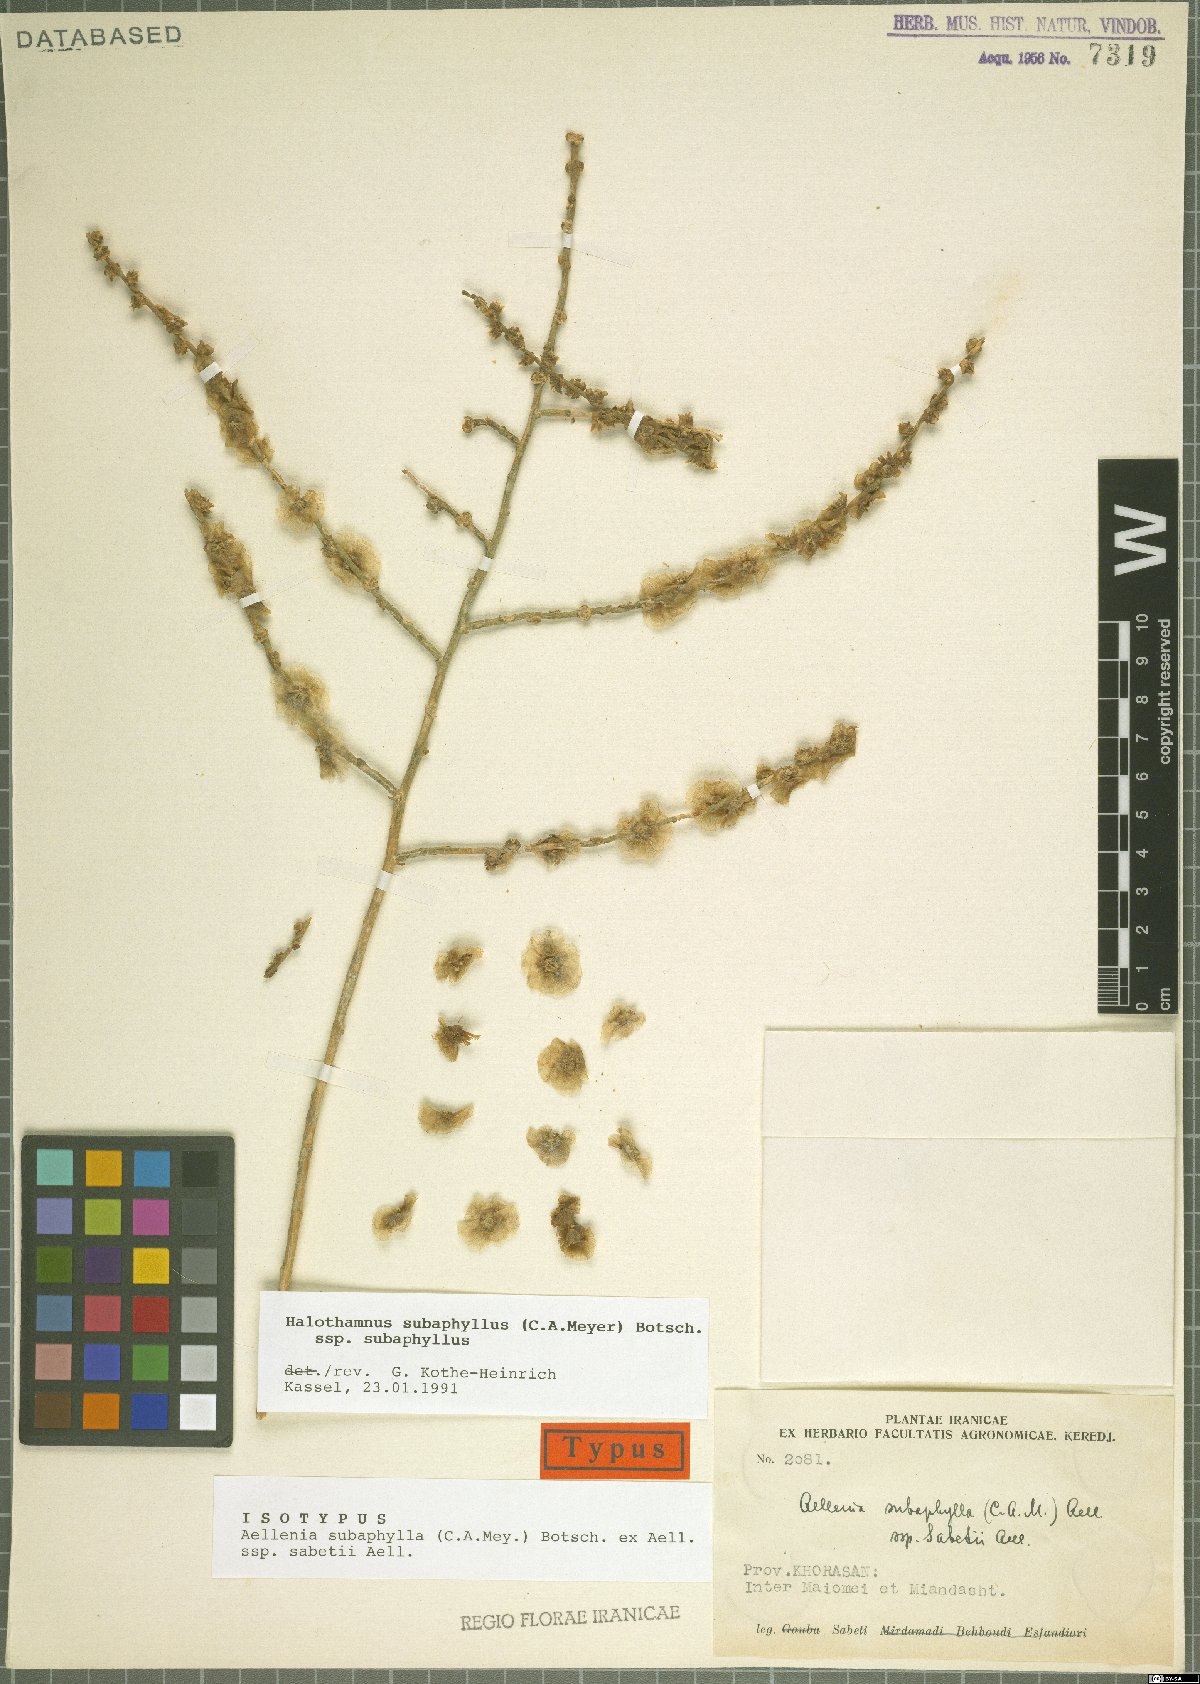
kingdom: Plantae
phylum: Tracheophyta
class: Magnoliopsida
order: Caryophyllales
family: Amaranthaceae
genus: Halothamnus
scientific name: Halothamnus subaphyllus
